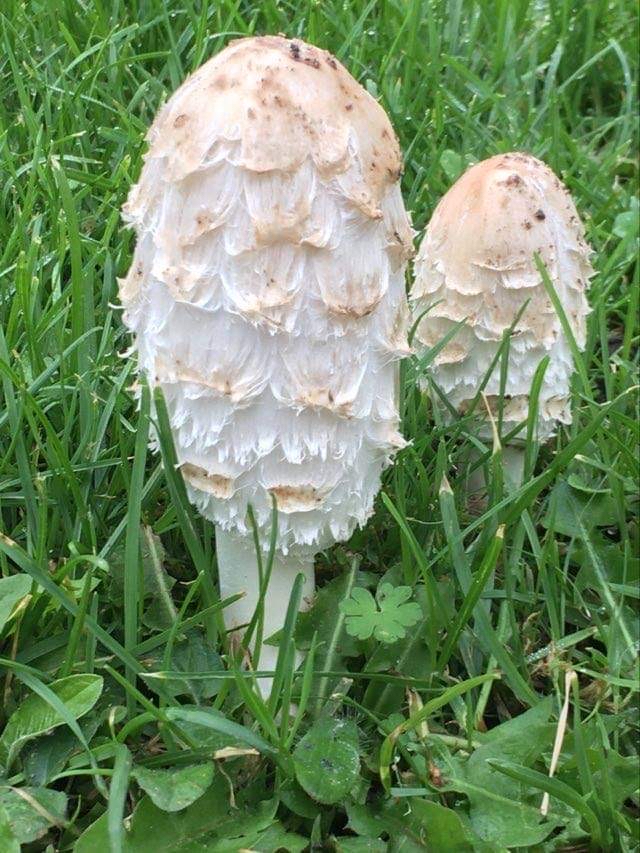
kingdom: Fungi
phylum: Basidiomycota
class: Agaricomycetes
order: Agaricales
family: Agaricaceae
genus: Coprinus
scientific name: Coprinus comatus
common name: stor parykhat
